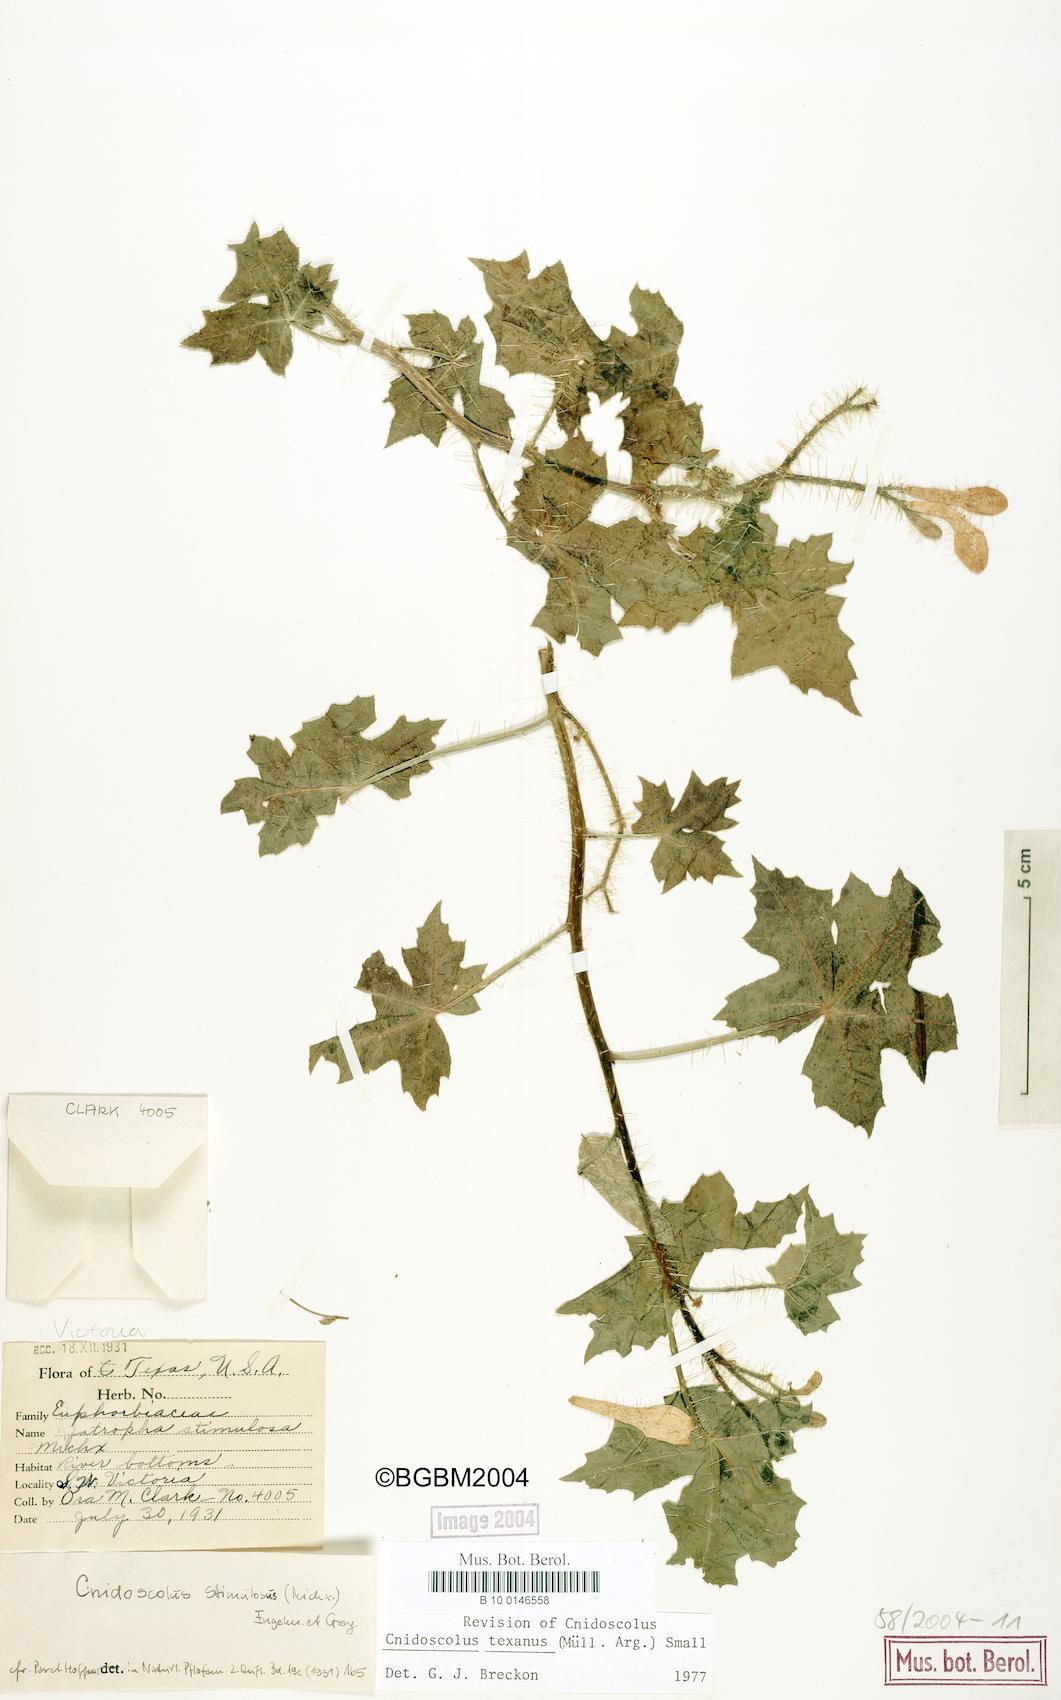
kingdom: Plantae
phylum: Tracheophyta
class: Magnoliopsida
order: Malpighiales
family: Euphorbiaceae
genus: Cnidoscolus
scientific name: Cnidoscolus texanus
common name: Texas bull-nettle
